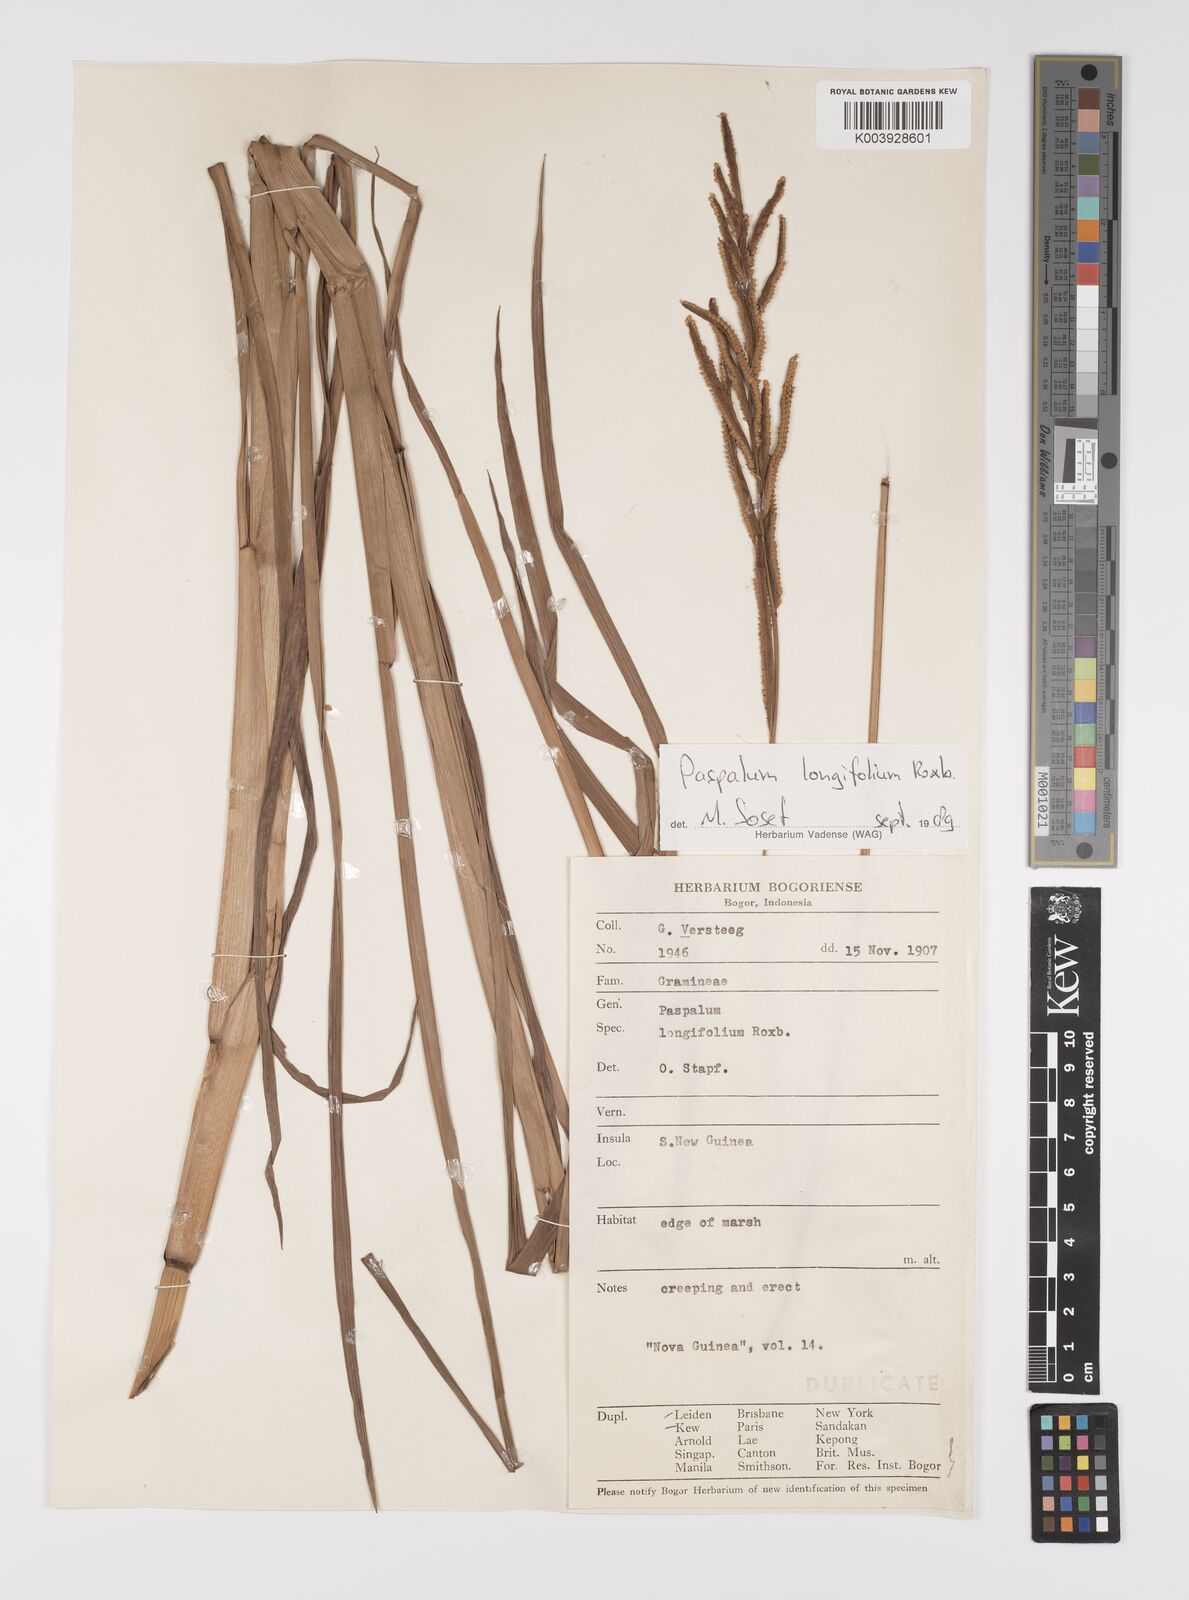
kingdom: Plantae
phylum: Tracheophyta
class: Liliopsida
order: Poales
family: Poaceae
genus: Paspalum
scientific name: Paspalum sumatrense
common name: Long-leaved paspalum
